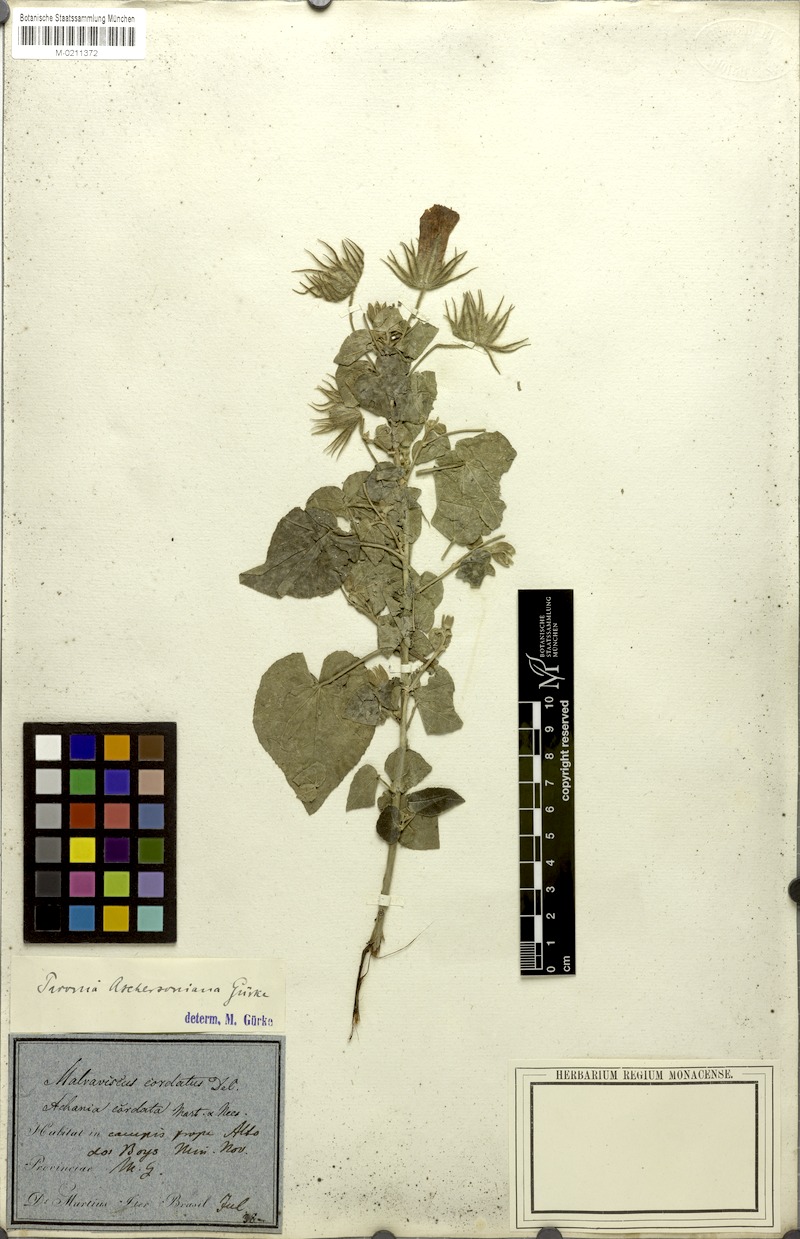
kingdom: Plantae
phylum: Tracheophyta
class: Magnoliopsida
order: Malvales
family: Malvaceae
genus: Pavonia
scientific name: Pavonia aschersoniana
